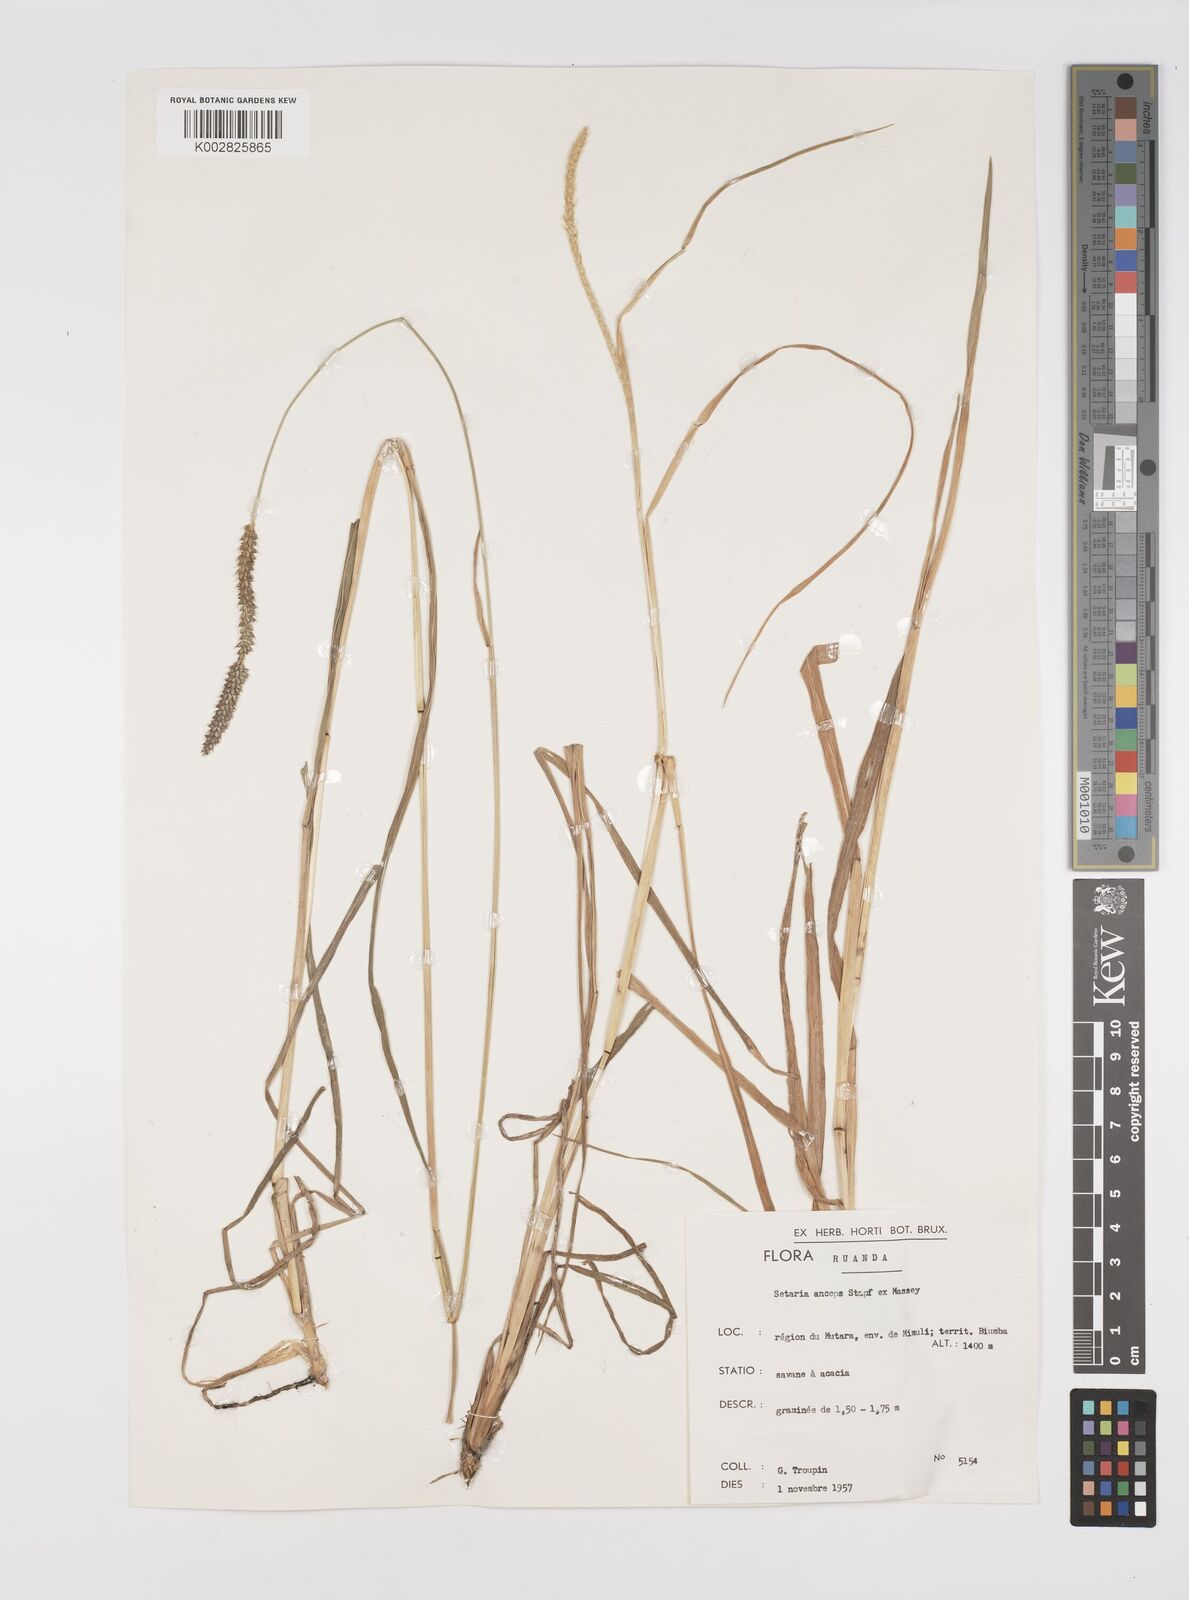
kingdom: Plantae
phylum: Tracheophyta
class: Liliopsida
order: Poales
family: Poaceae
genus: Setaria
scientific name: Setaria sphacelata
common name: African bristlegrass
